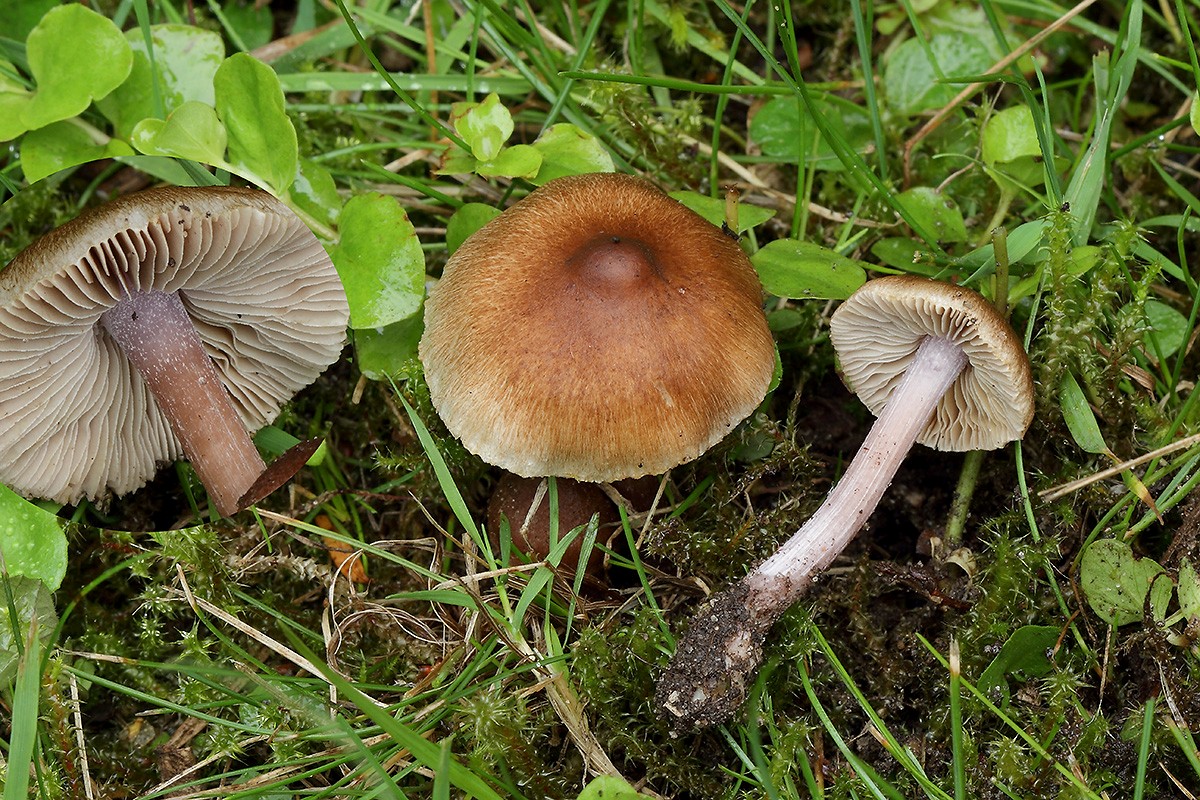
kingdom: Fungi
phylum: Basidiomycota
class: Agaricomycetes
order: Agaricales
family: Inocybaceae
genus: Inocybe
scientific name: Inocybe
